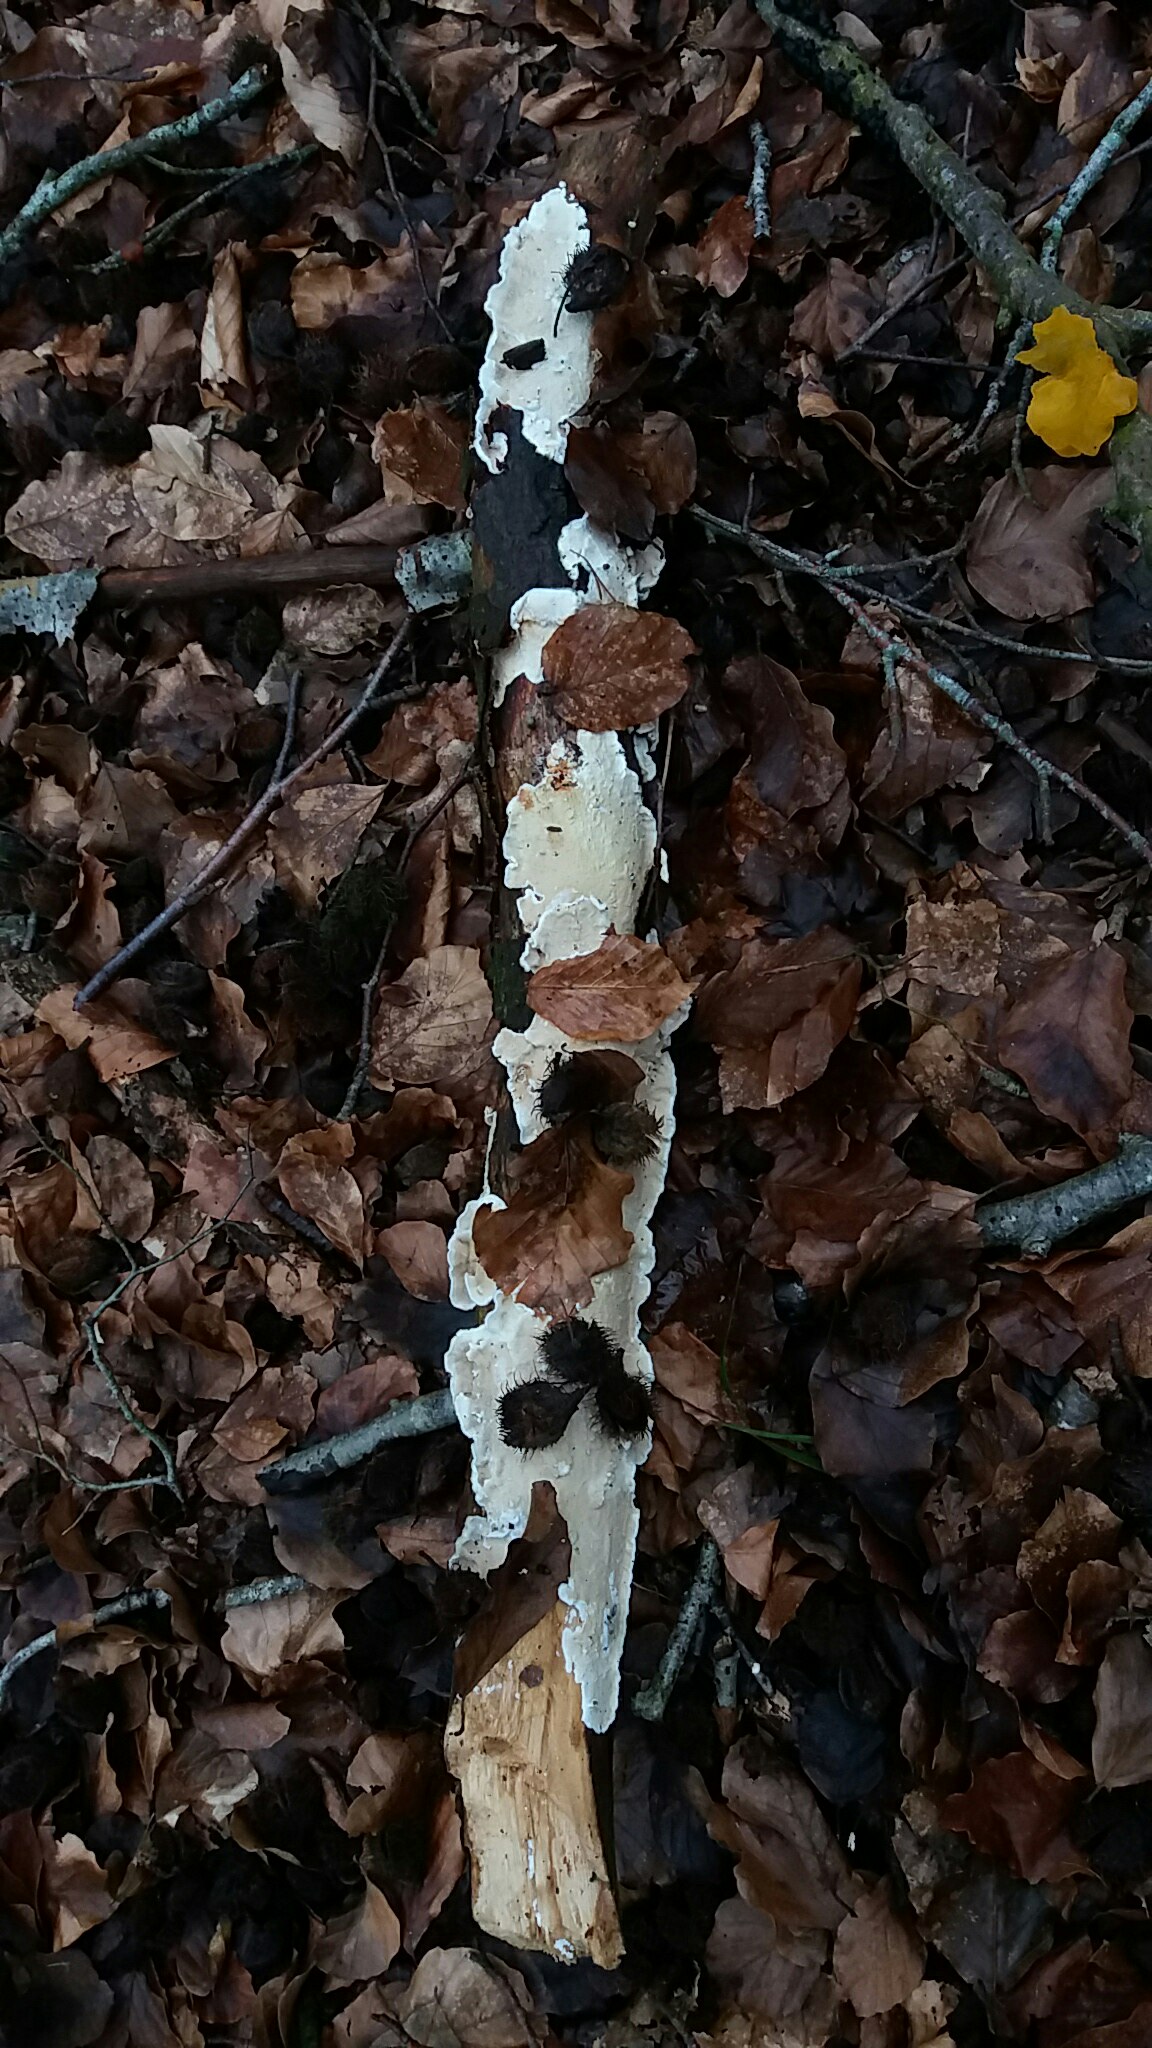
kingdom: Fungi
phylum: Basidiomycota
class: Agaricomycetes
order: Polyporales
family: Irpicaceae
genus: Byssomerulius
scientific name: Byssomerulius corium
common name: læder-åresvamp
